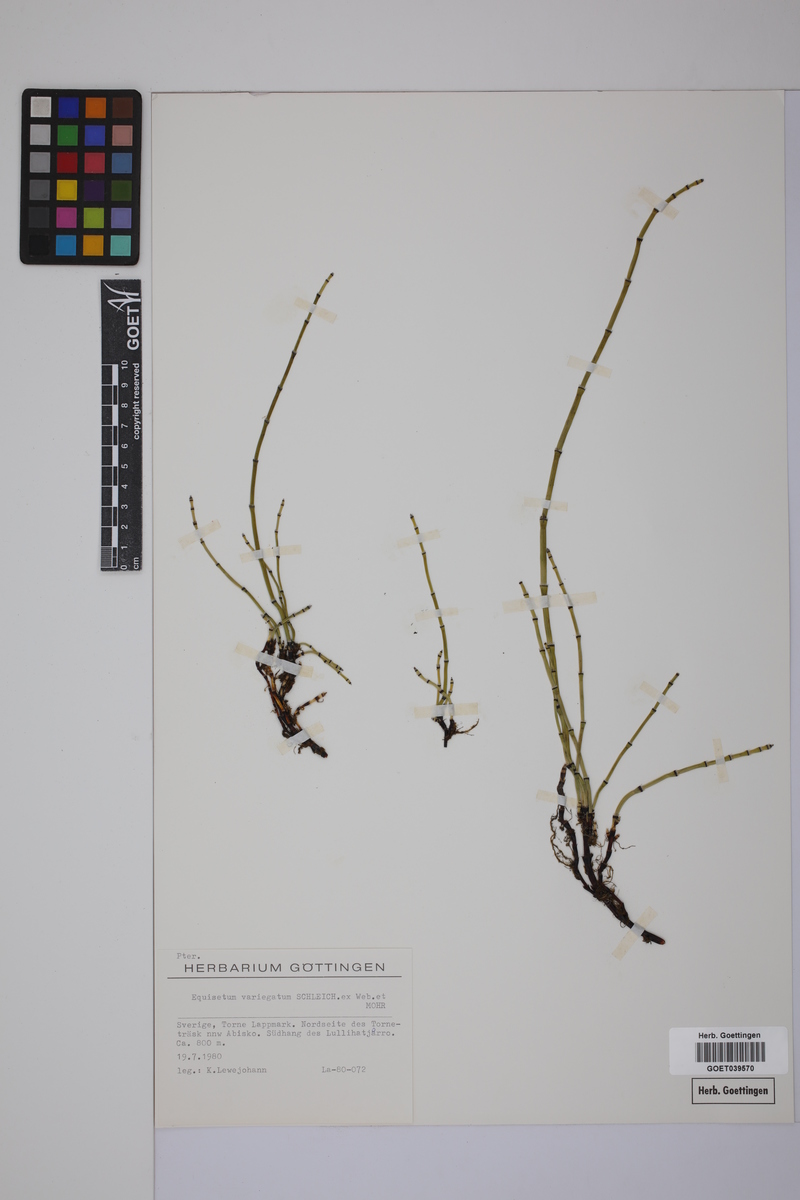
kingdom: Plantae
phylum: Tracheophyta
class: Polypodiopsida
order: Equisetales
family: Equisetaceae
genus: Equisetum
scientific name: Equisetum variegatum
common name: Variegated horsetail
